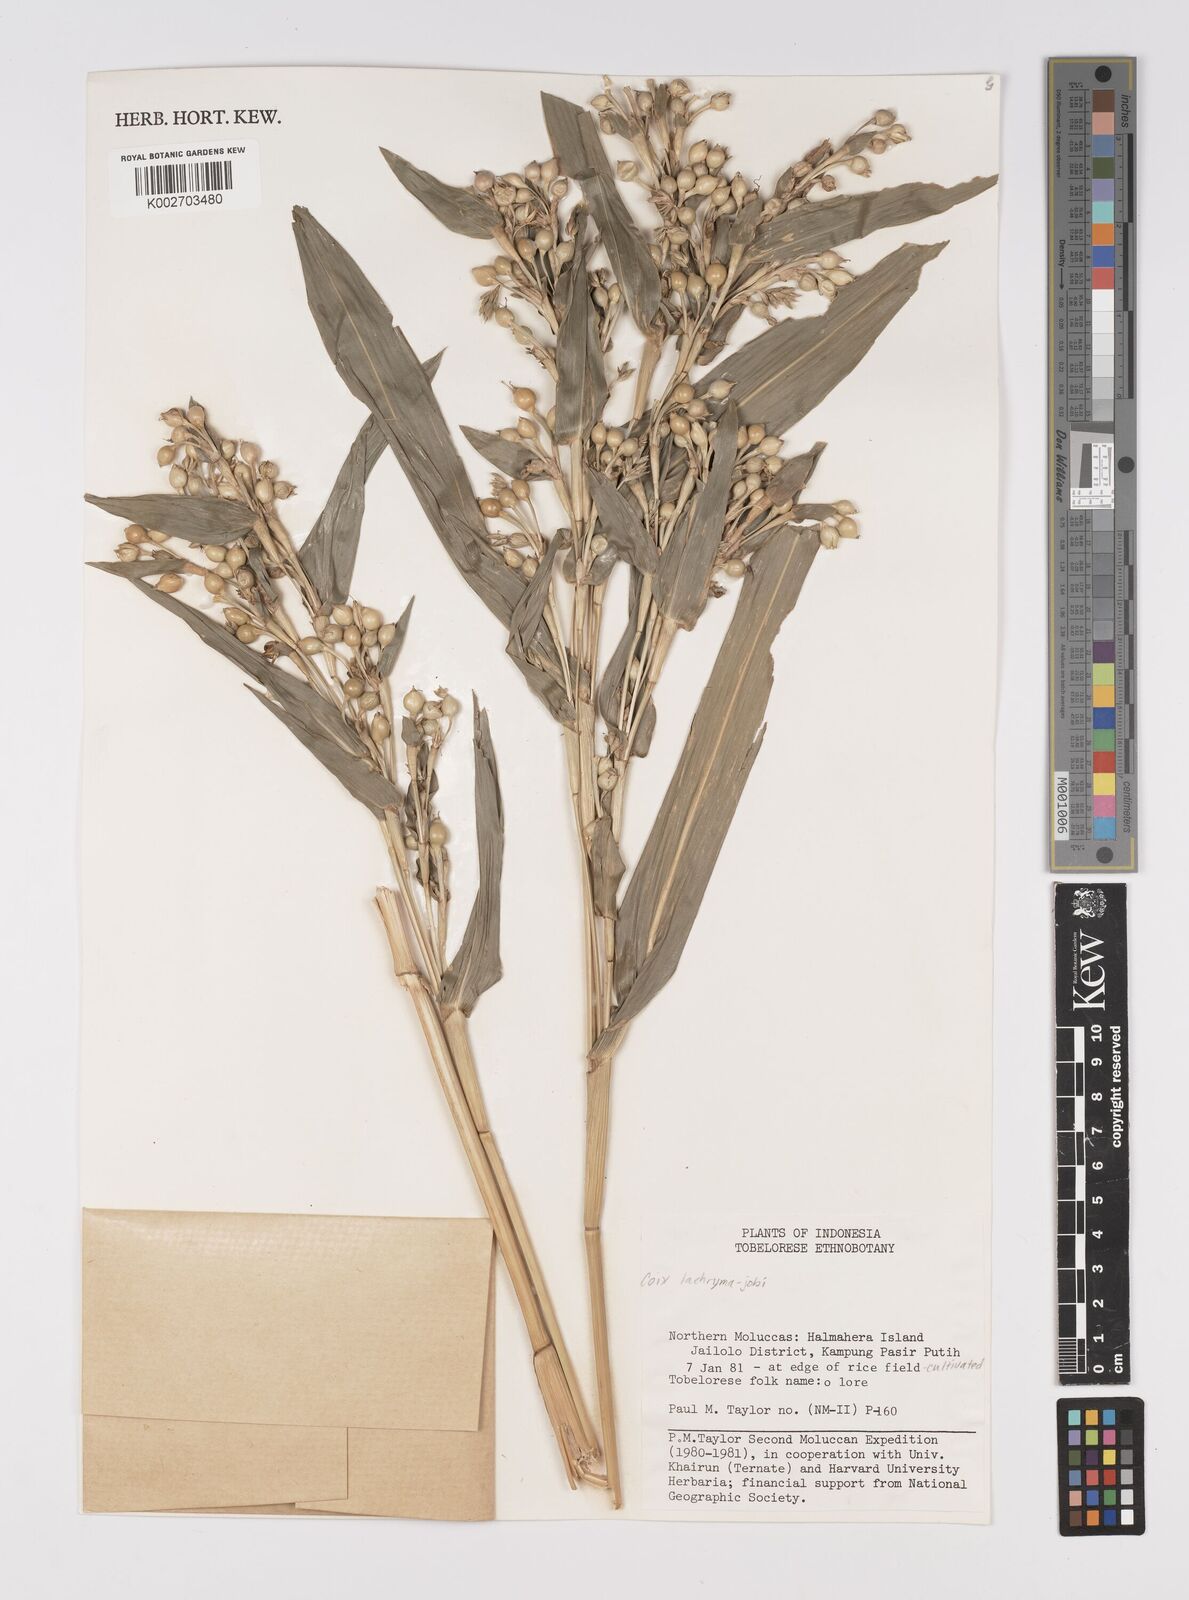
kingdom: Plantae
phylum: Tracheophyta
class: Liliopsida
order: Poales
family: Poaceae
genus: Coix
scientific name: Coix lacryma-jobi
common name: Job's tears
